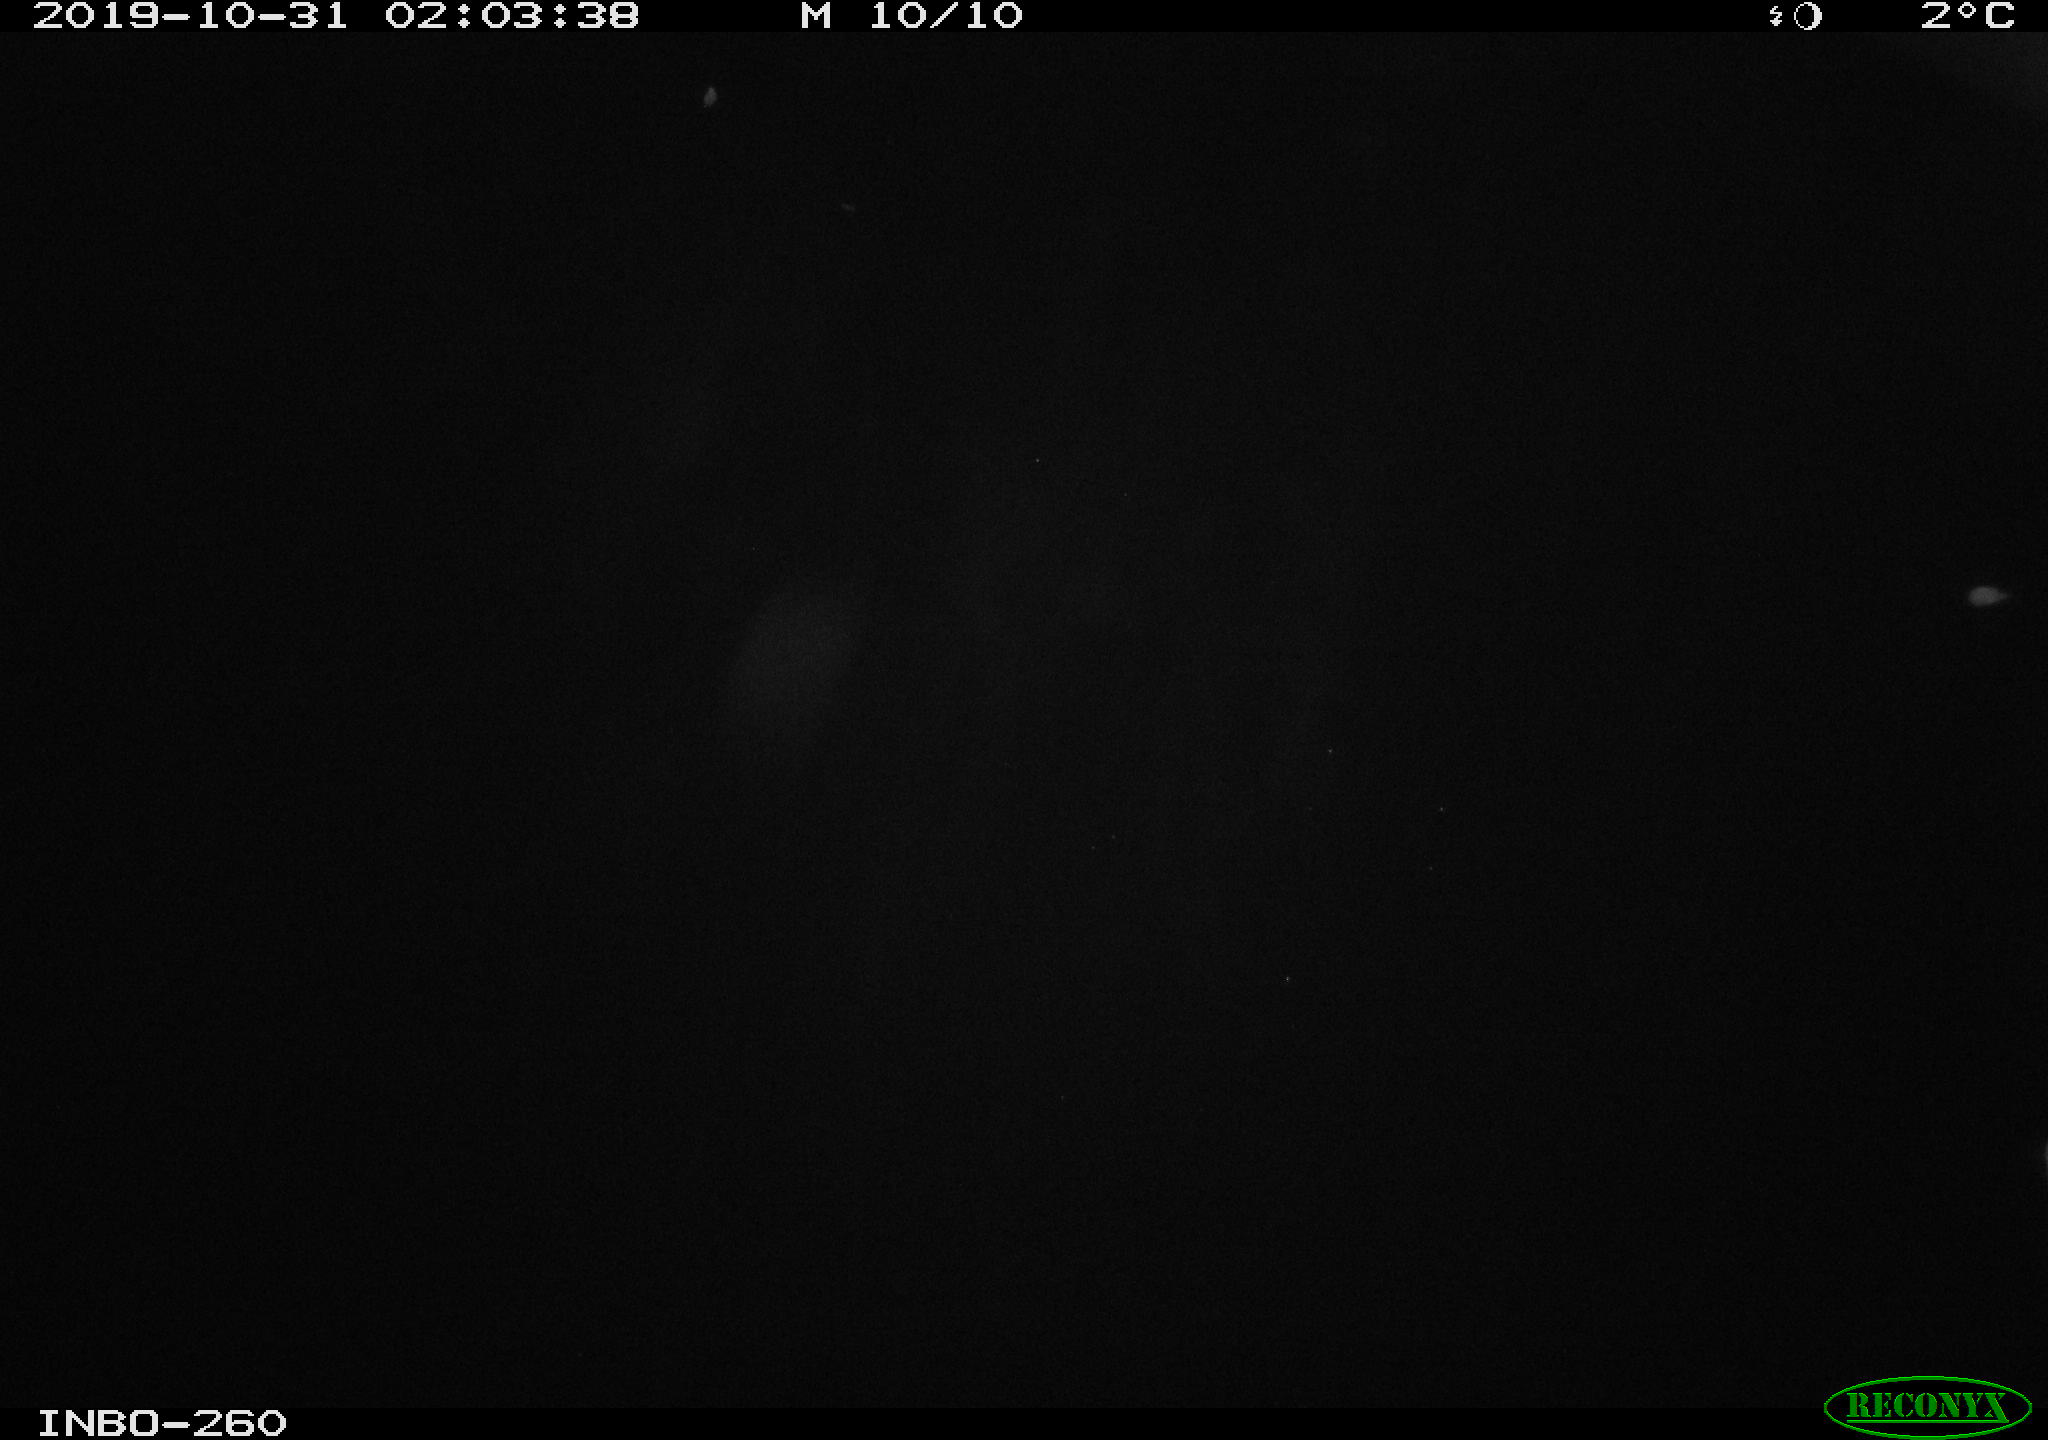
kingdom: Animalia
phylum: Chordata
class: Aves
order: Anseriformes
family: Anatidae
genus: Anas
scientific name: Anas platyrhynchos
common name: Mallard
